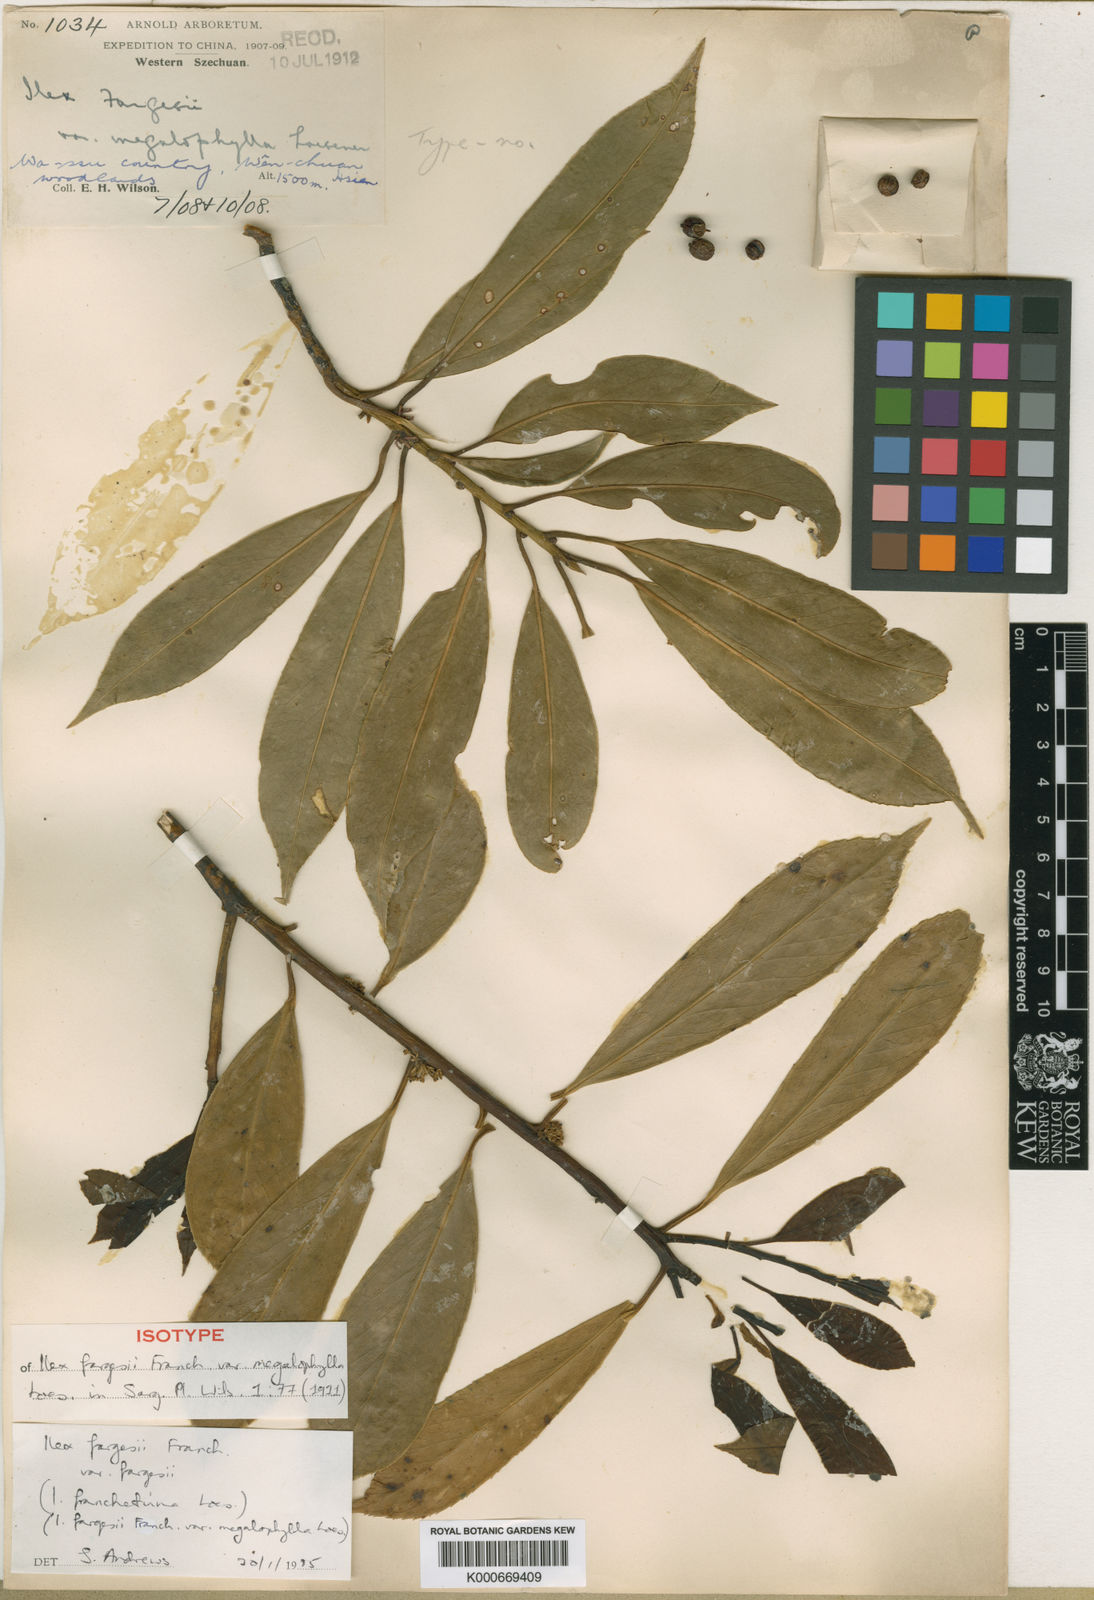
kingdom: Plantae
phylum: Tracheophyta
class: Magnoliopsida
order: Aquifoliales
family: Aquifoliaceae
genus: Ilex
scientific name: Ilex fargesii
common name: Farges’s holly
